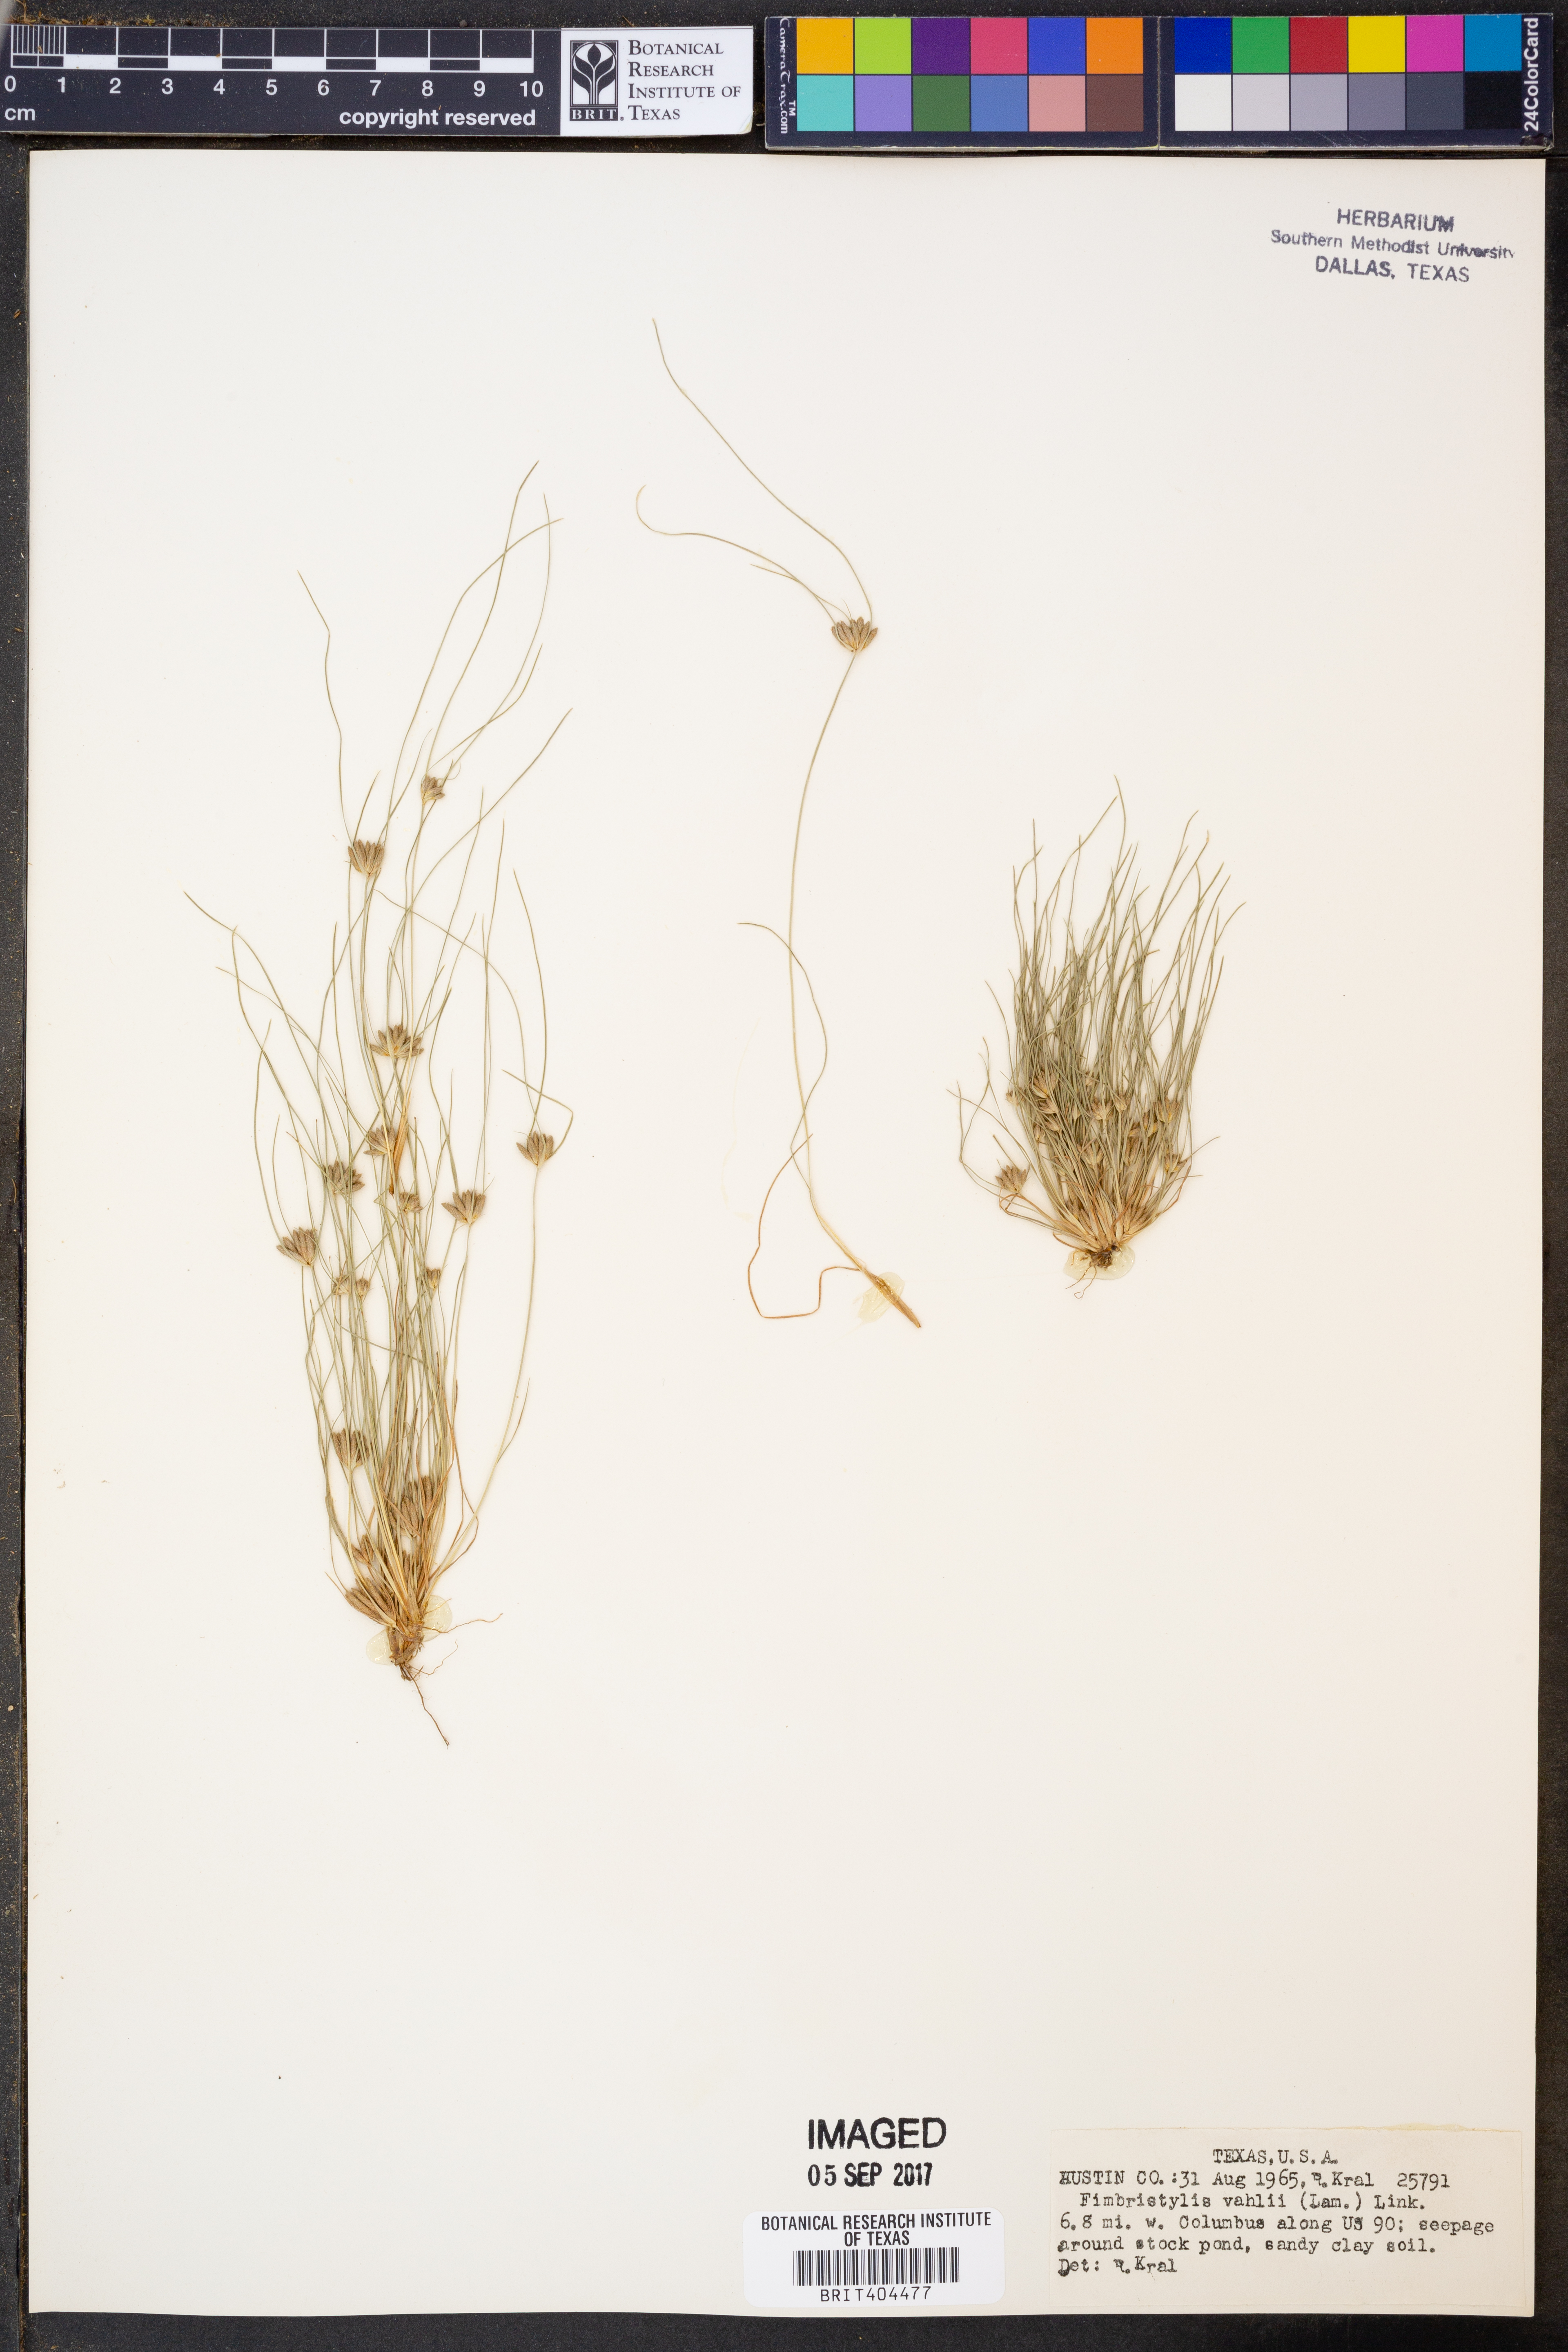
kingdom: Plantae
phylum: Tracheophyta
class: Liliopsida
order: Poales
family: Cyperaceae
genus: Fimbristylis
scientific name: Fimbristylis vahlii
